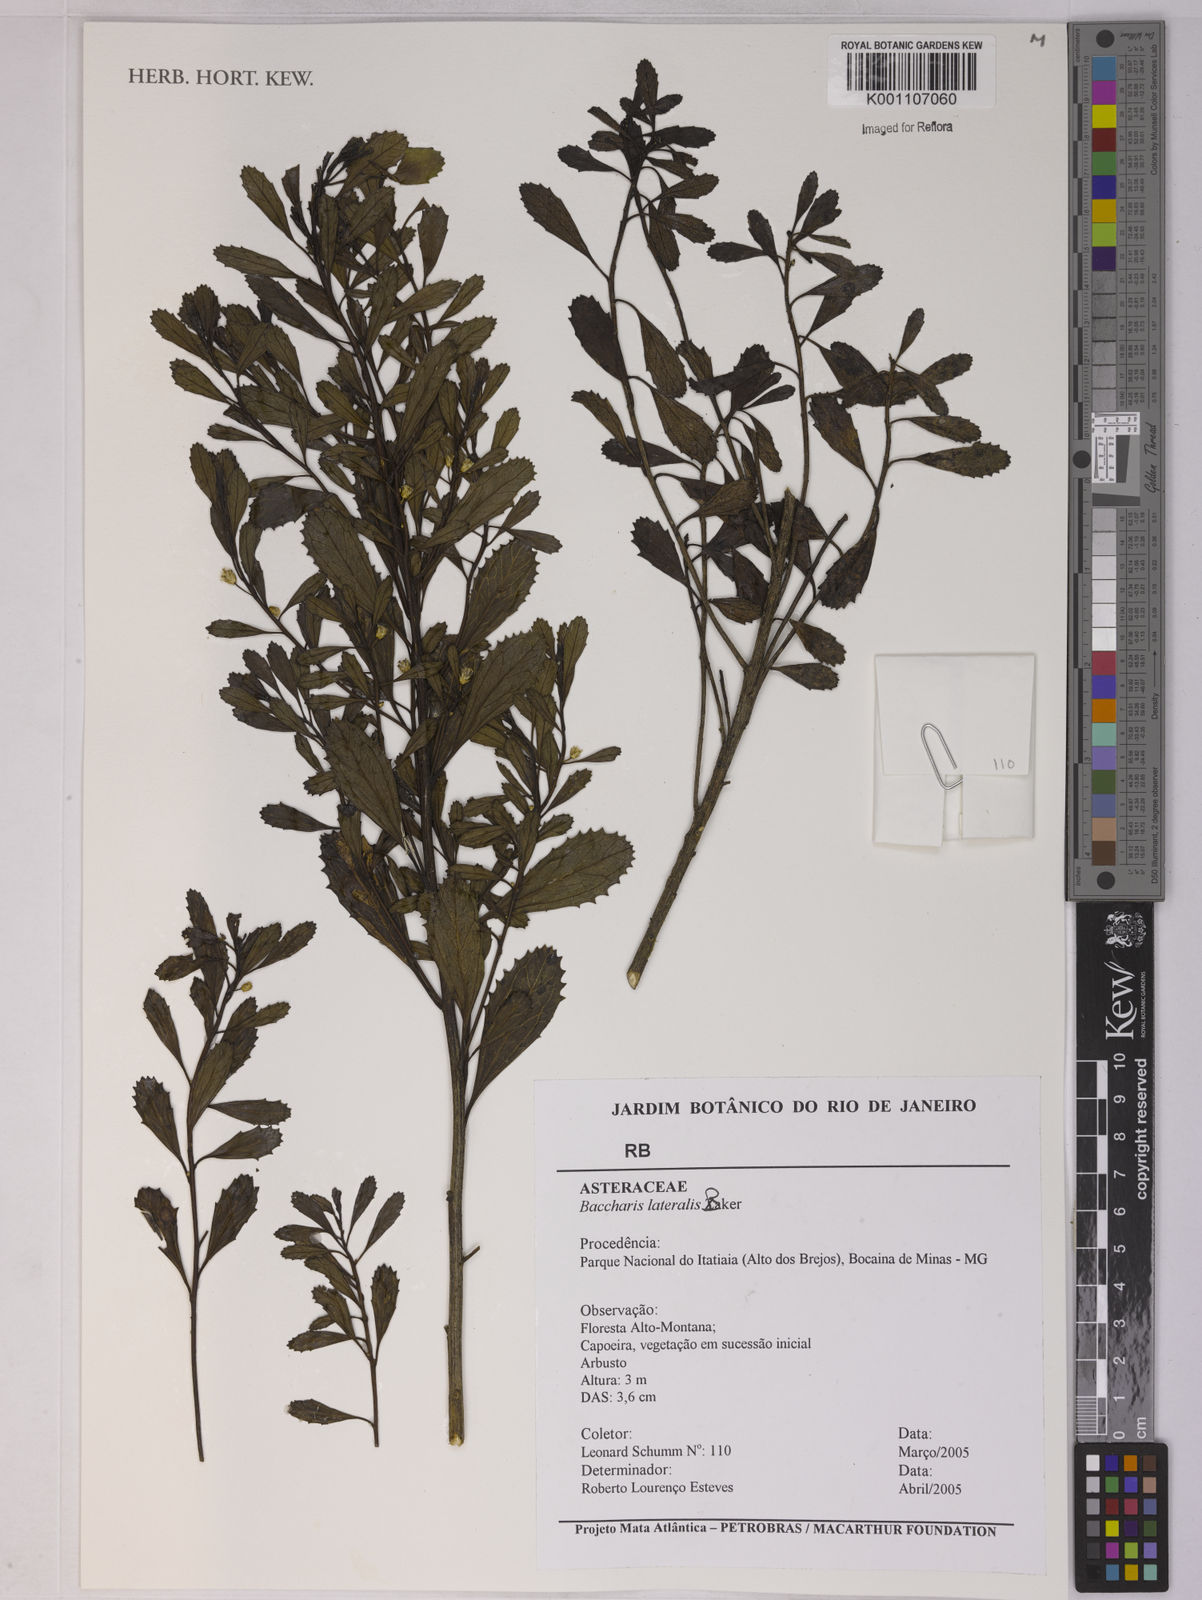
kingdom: Plantae
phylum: Tracheophyta
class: Magnoliopsida
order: Asterales
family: Asteraceae
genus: Baccharis
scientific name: Baccharis lateralis
